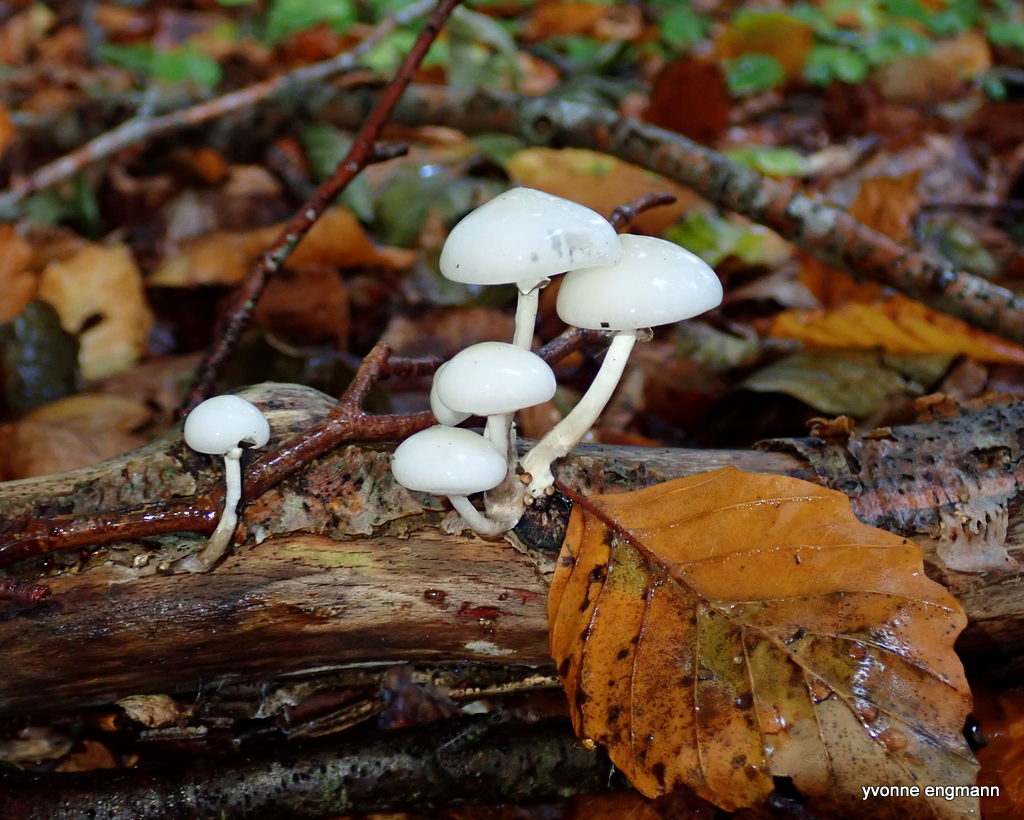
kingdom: Fungi
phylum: Basidiomycota
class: Agaricomycetes
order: Agaricales
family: Physalacriaceae
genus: Mucidula
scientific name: Mucidula mucida
